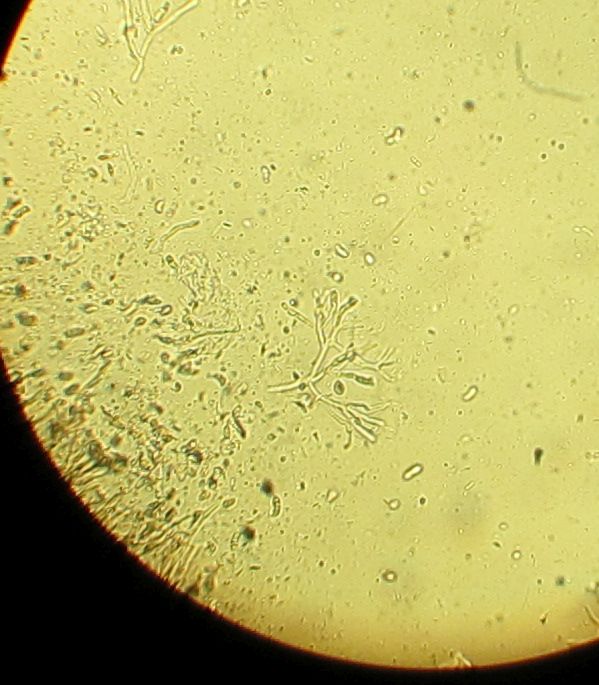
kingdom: Fungi
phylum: Basidiomycota
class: Dacrymycetes
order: Dacrymycetales
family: Dacrymycetaceae
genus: Dacrymyces
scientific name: Dacrymyces capitatus
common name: stilket tåresvamp
